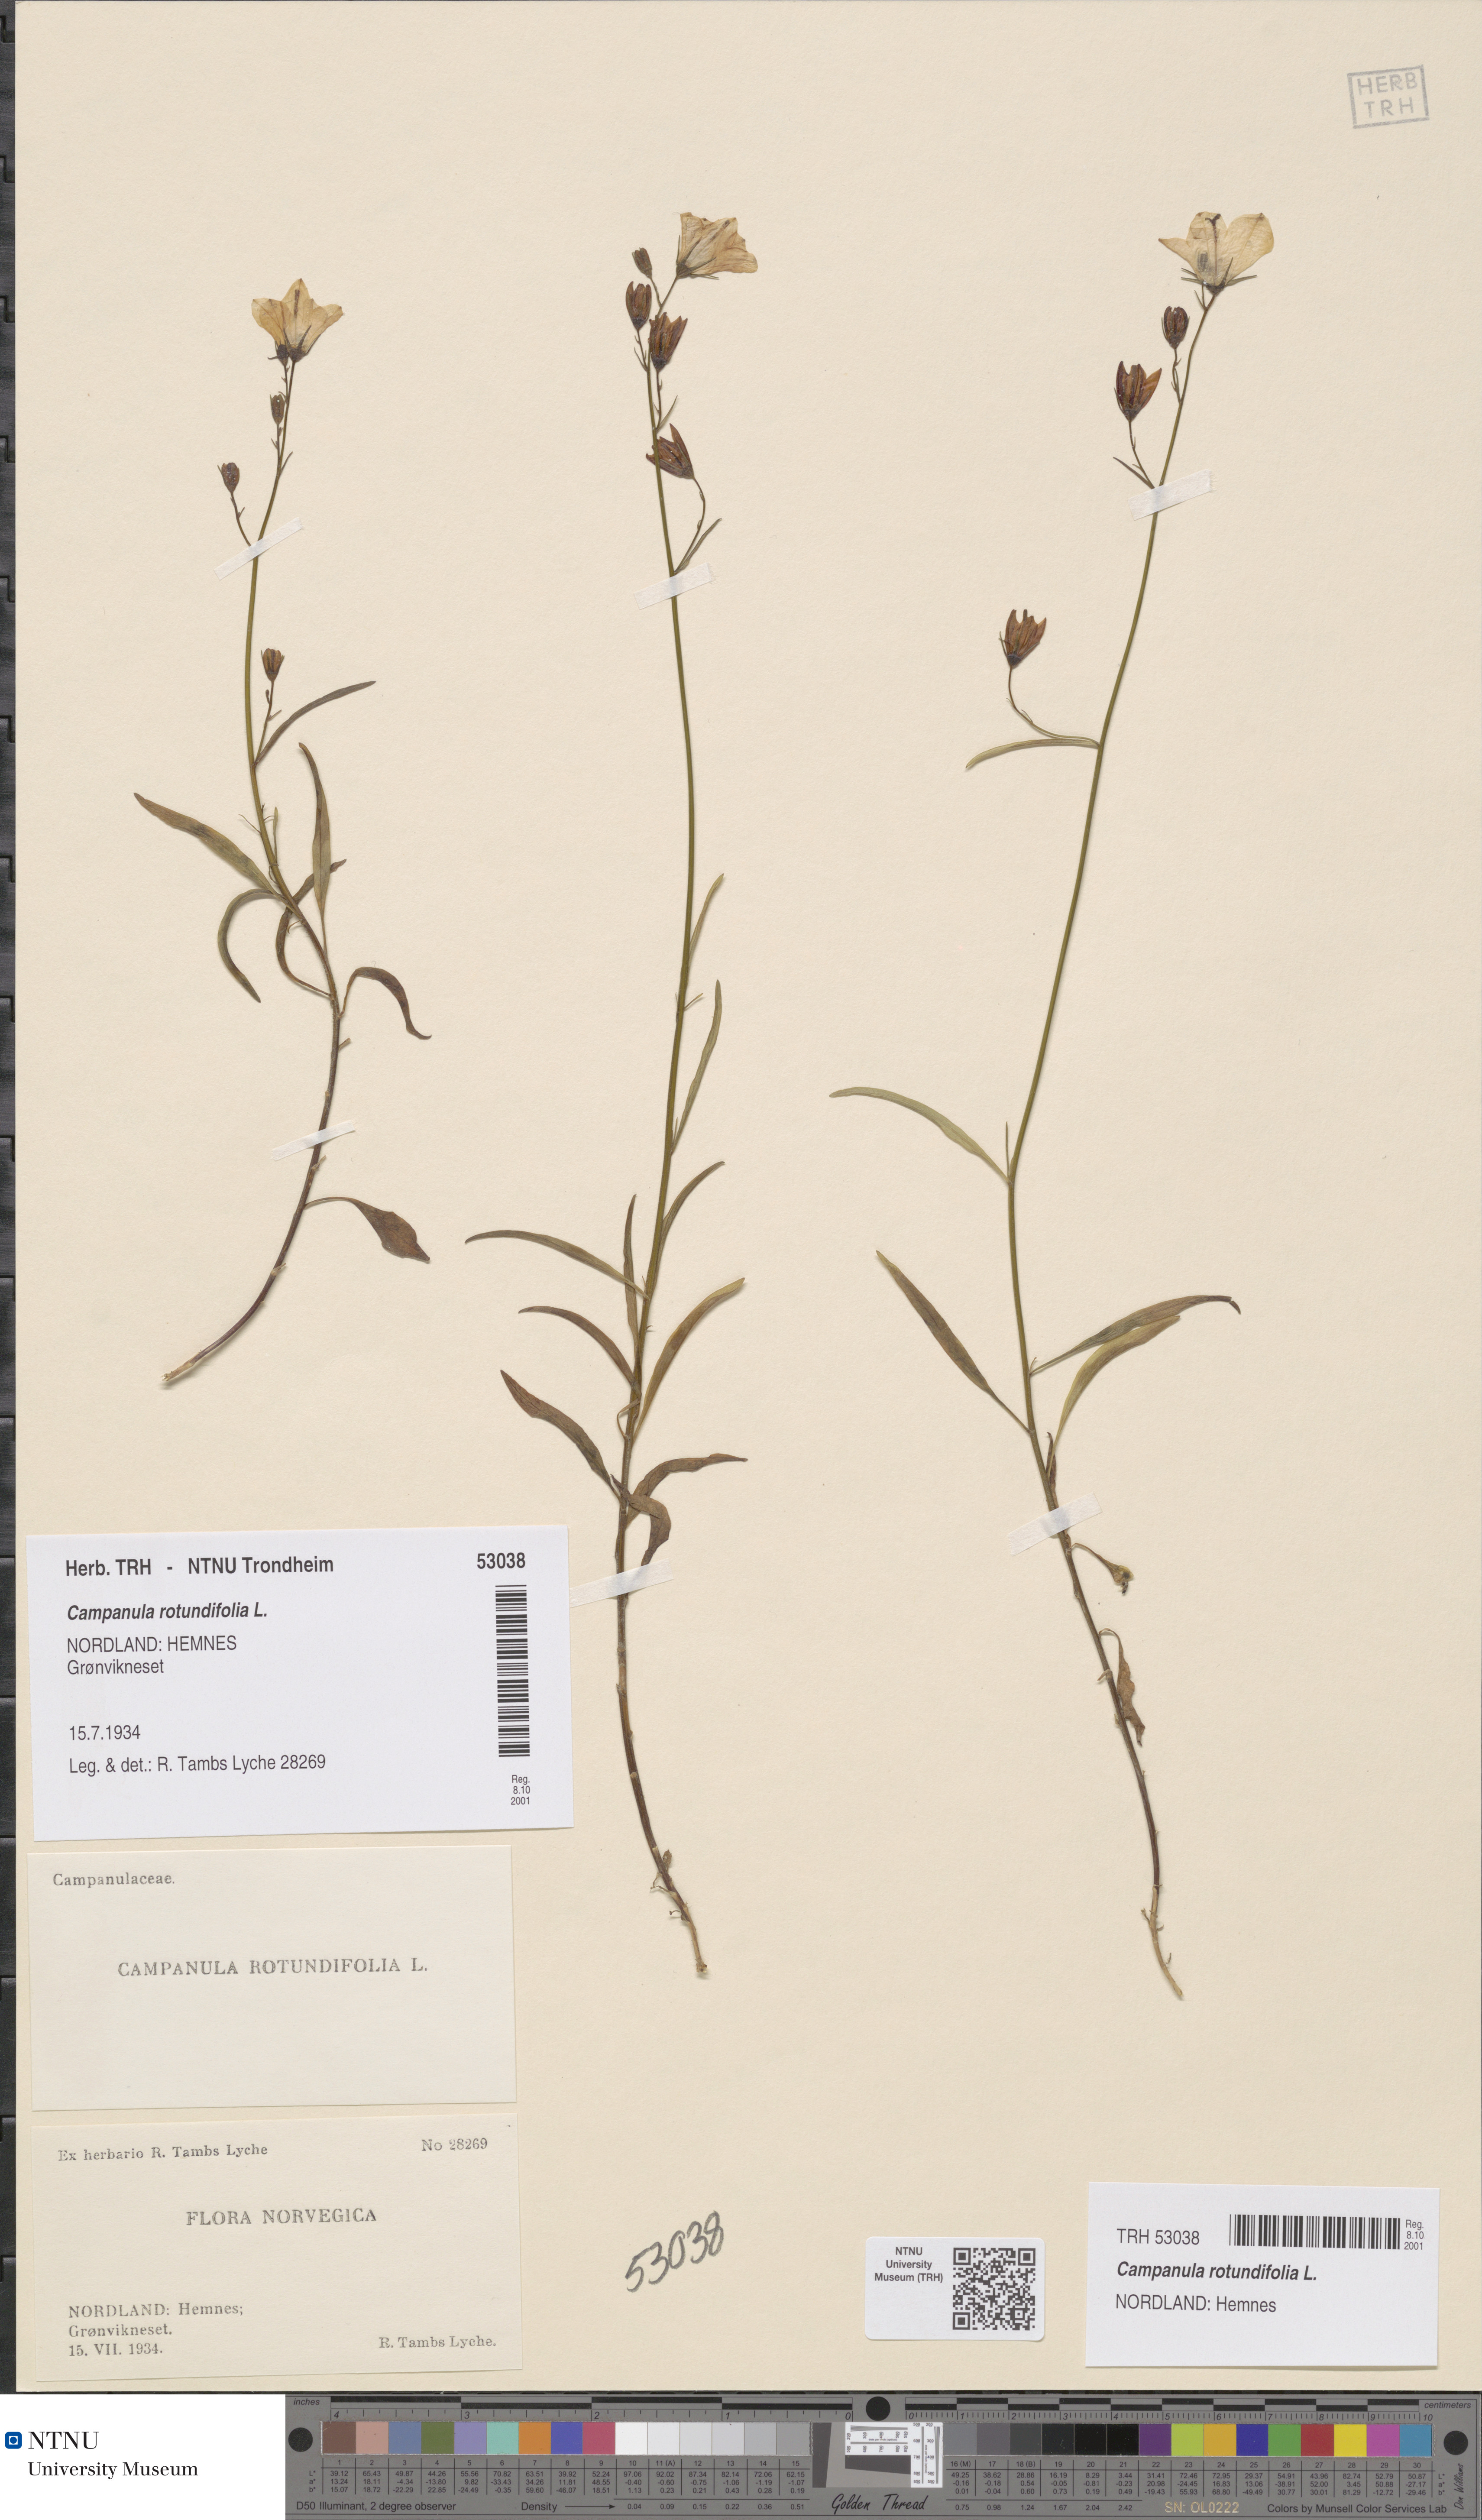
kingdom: Plantae
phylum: Tracheophyta
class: Magnoliopsida
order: Asterales
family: Campanulaceae
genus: Campanula
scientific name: Campanula rotundifolia
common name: Harebell
